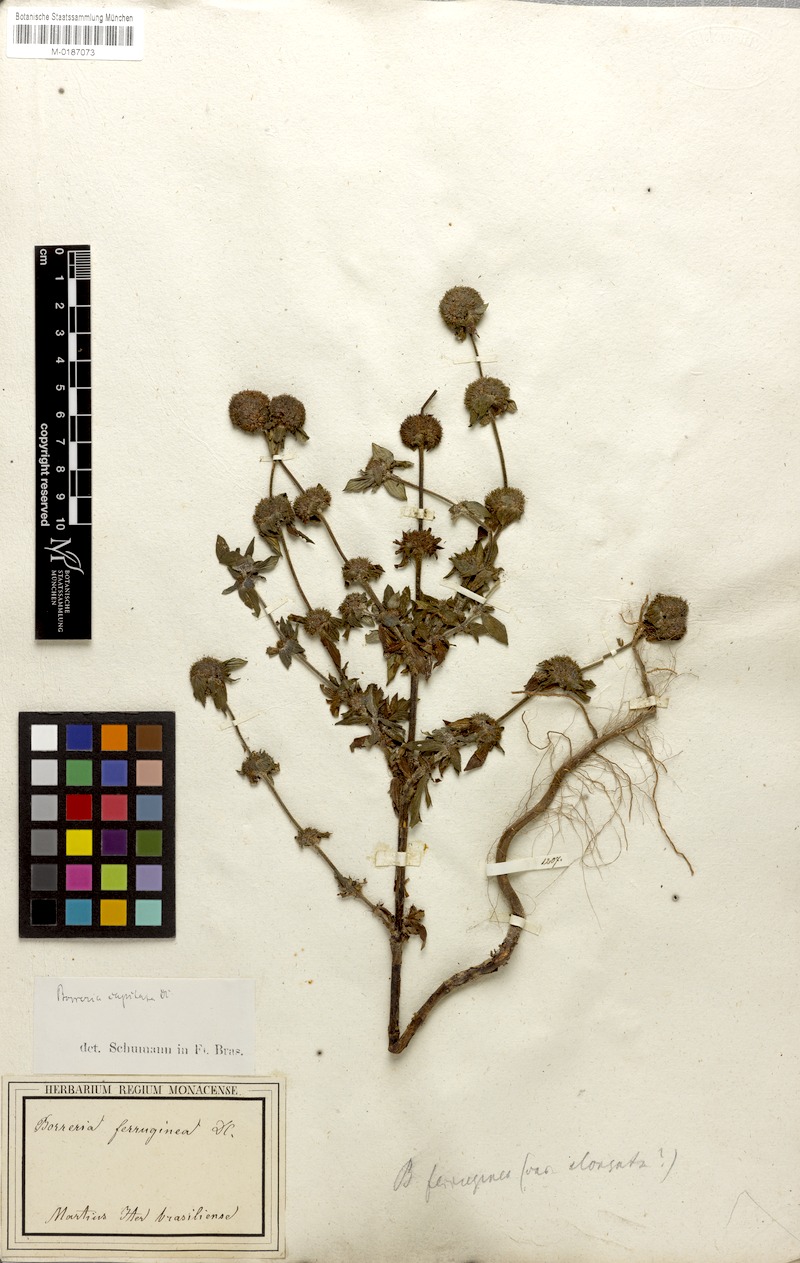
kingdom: Plantae
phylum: Tracheophyta
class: Magnoliopsida
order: Gentianales
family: Rubiaceae
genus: Spermacoce
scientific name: Spermacoce capitata
